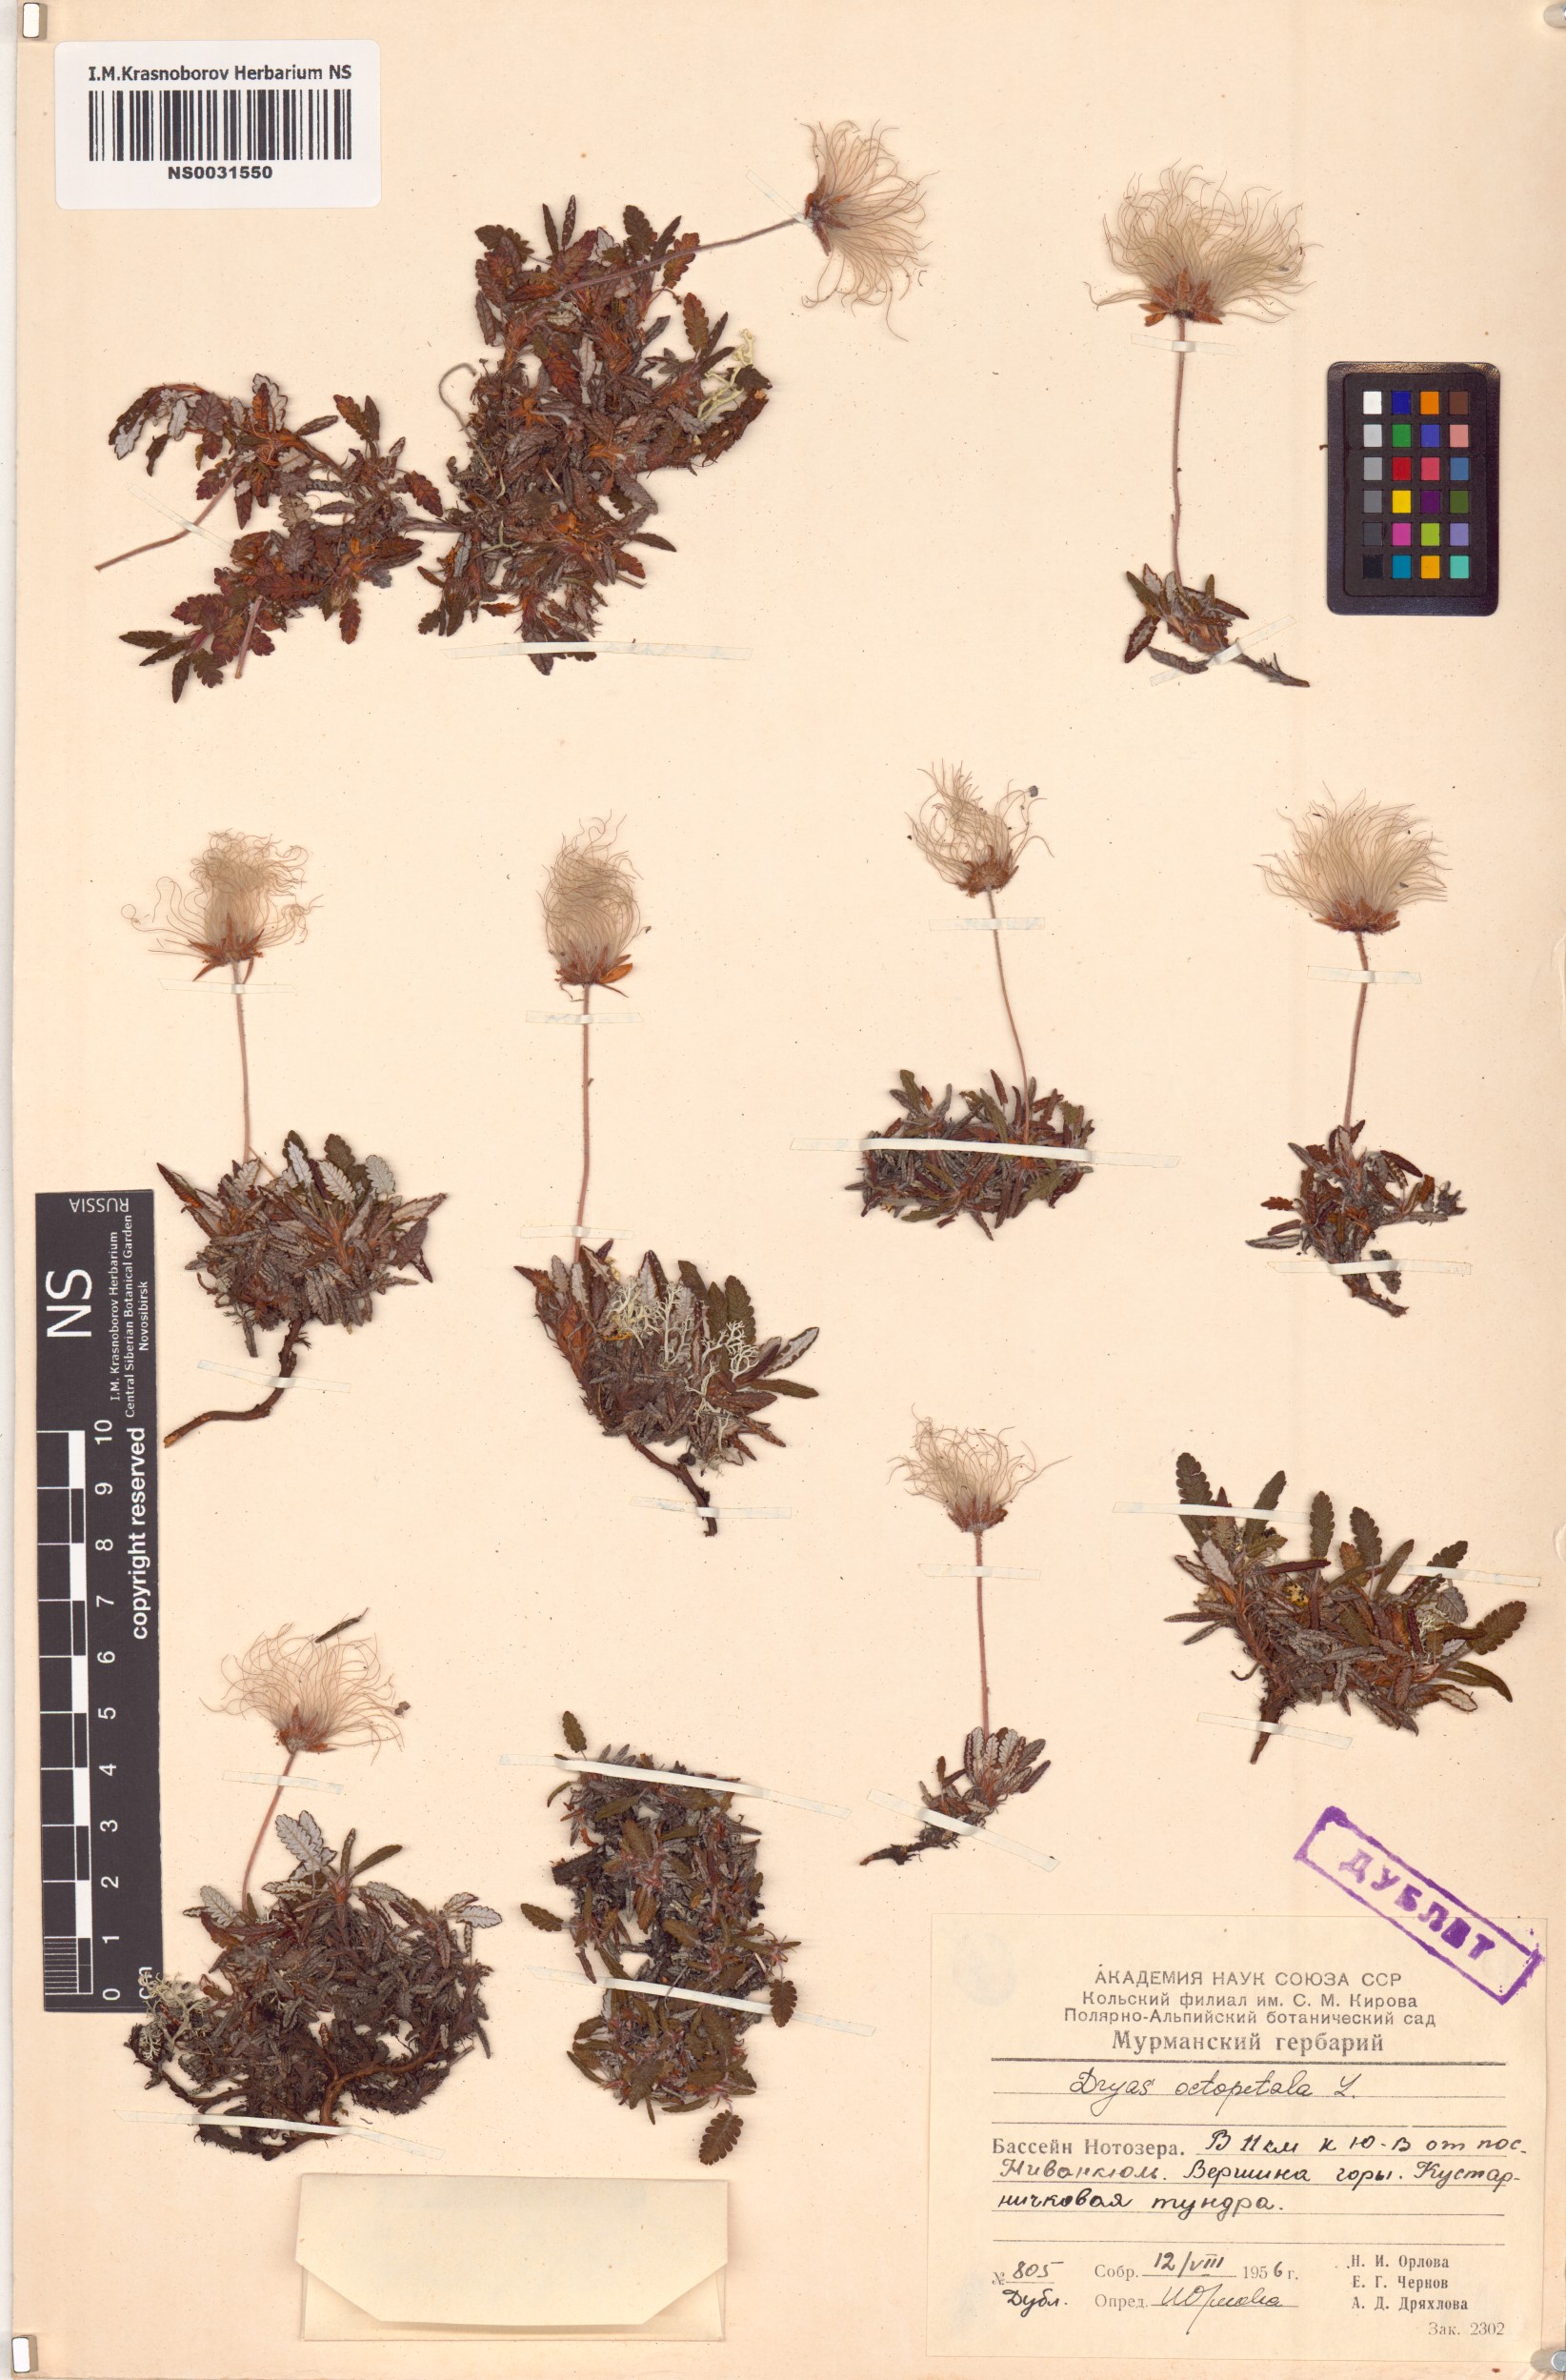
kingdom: Plantae
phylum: Tracheophyta
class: Magnoliopsida
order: Rosales
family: Rosaceae
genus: Dryas
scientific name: Dryas octopetala
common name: Eight-petal mountain-avens
